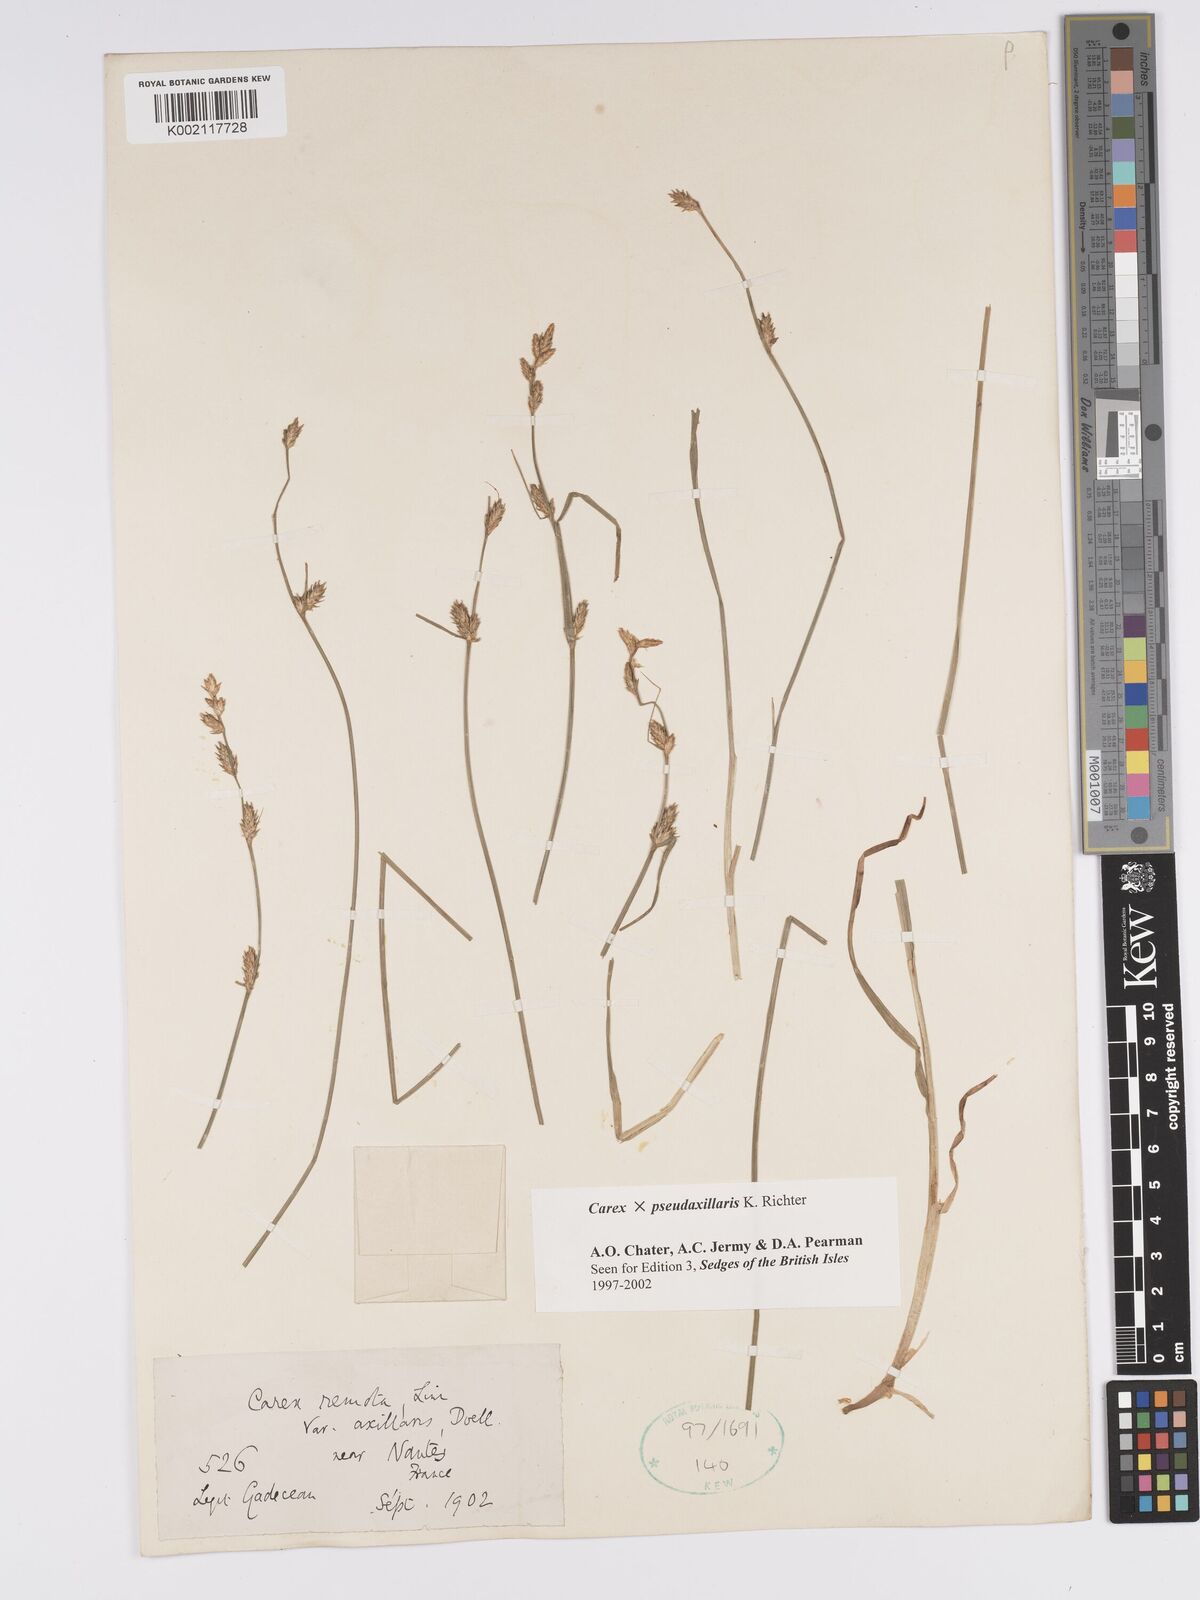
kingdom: Plantae
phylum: Tracheophyta
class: Liliopsida
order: Poales
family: Cyperaceae
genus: Carex
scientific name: Carex pseudoaxillaris
